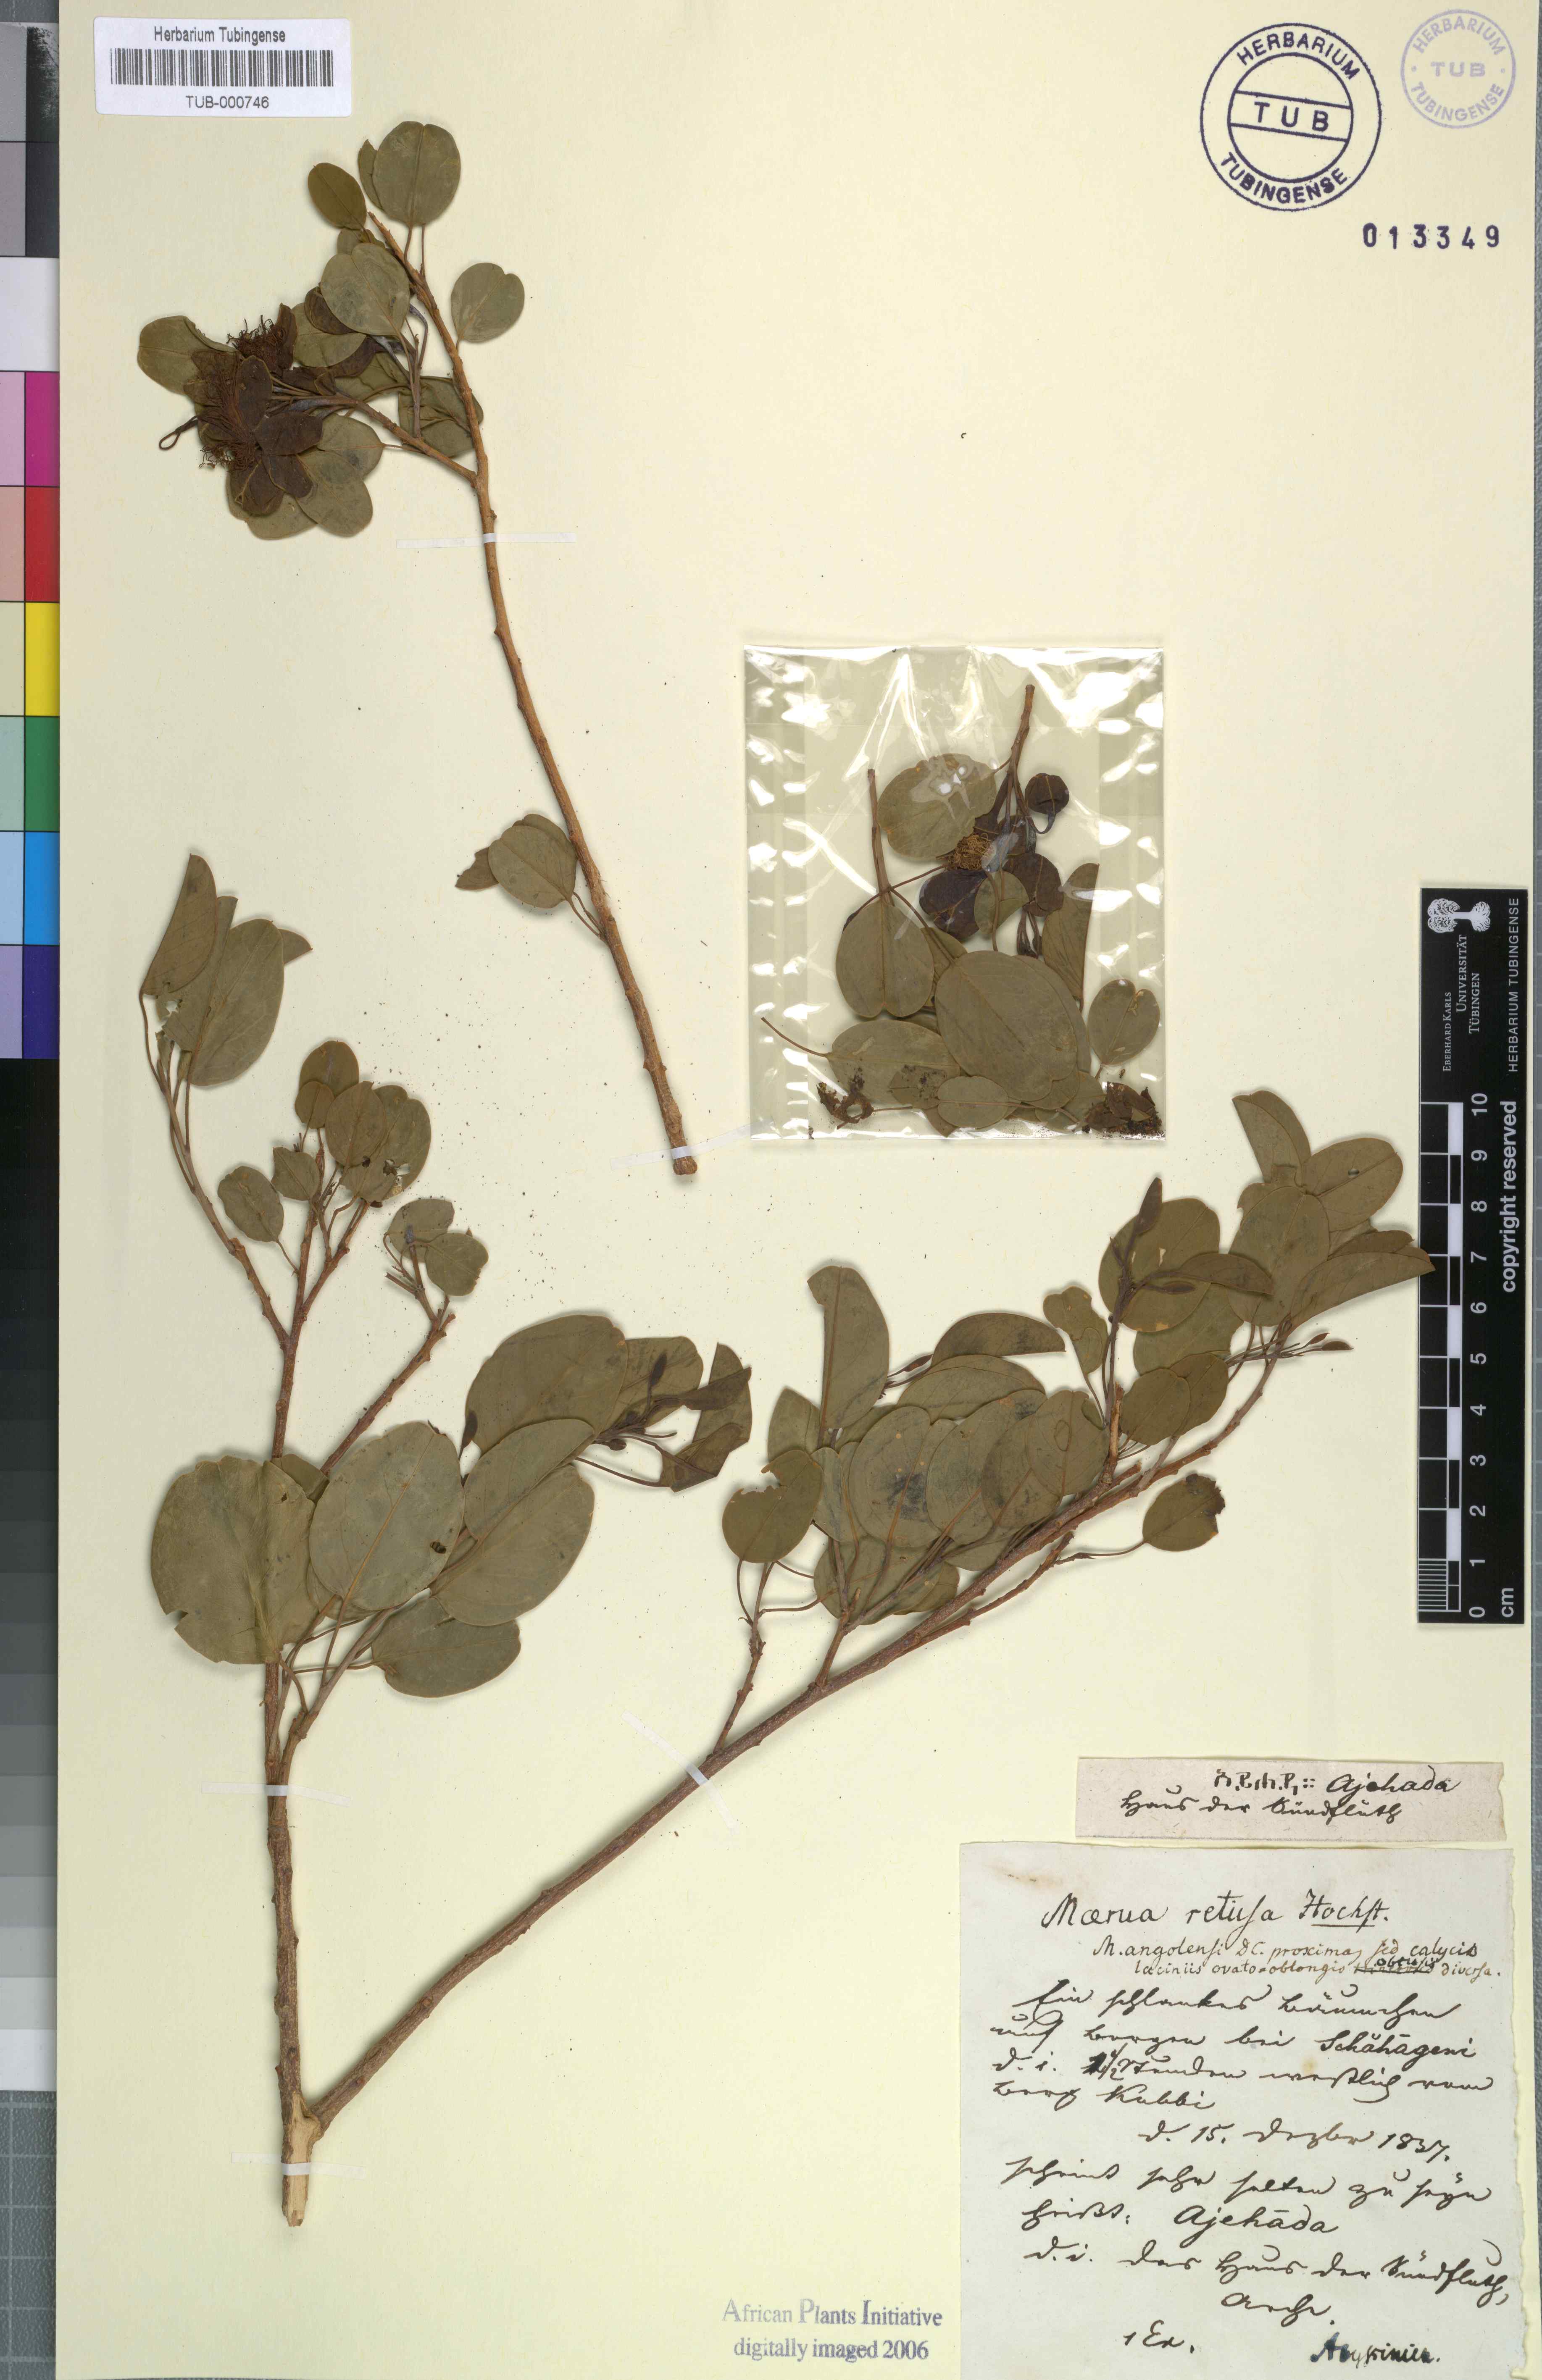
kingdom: Plantae
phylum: Tracheophyta
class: Magnoliopsida
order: Brassicales
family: Capparaceae
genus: Maerua
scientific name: Maerua angolensis
